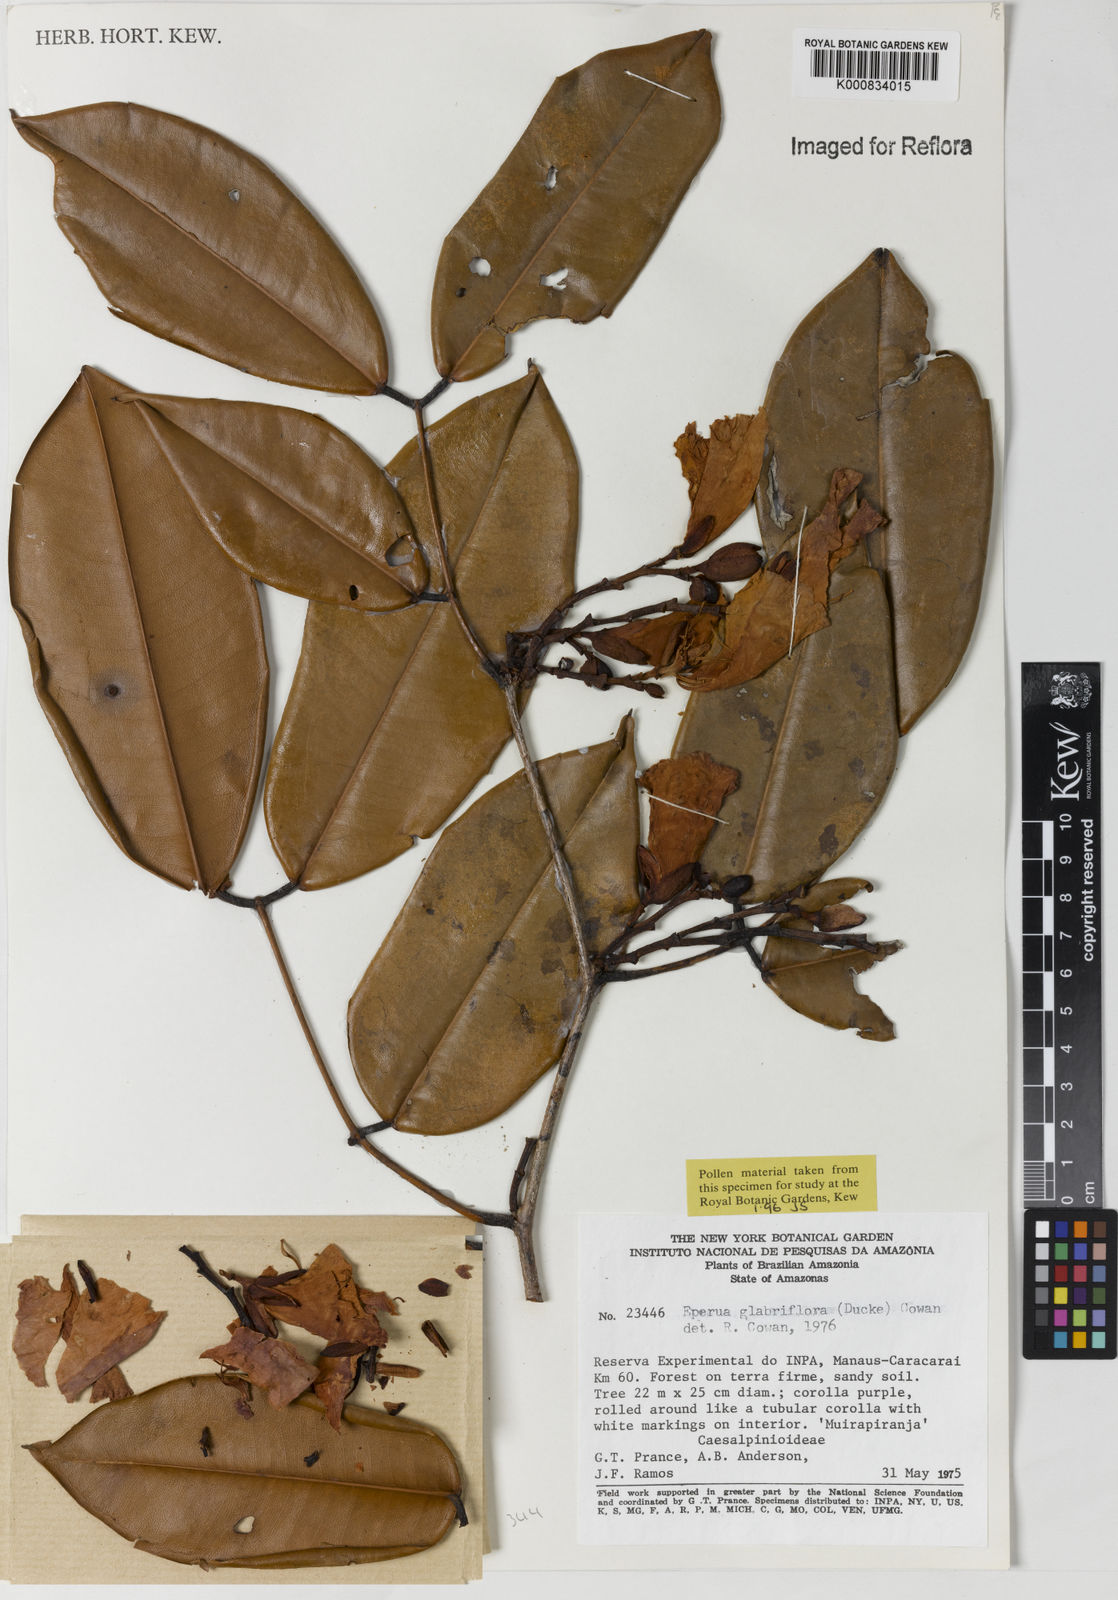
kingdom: Plantae
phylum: Tracheophyta
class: Magnoliopsida
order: Fabales
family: Fabaceae
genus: Eperua
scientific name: Eperua glabriflora
